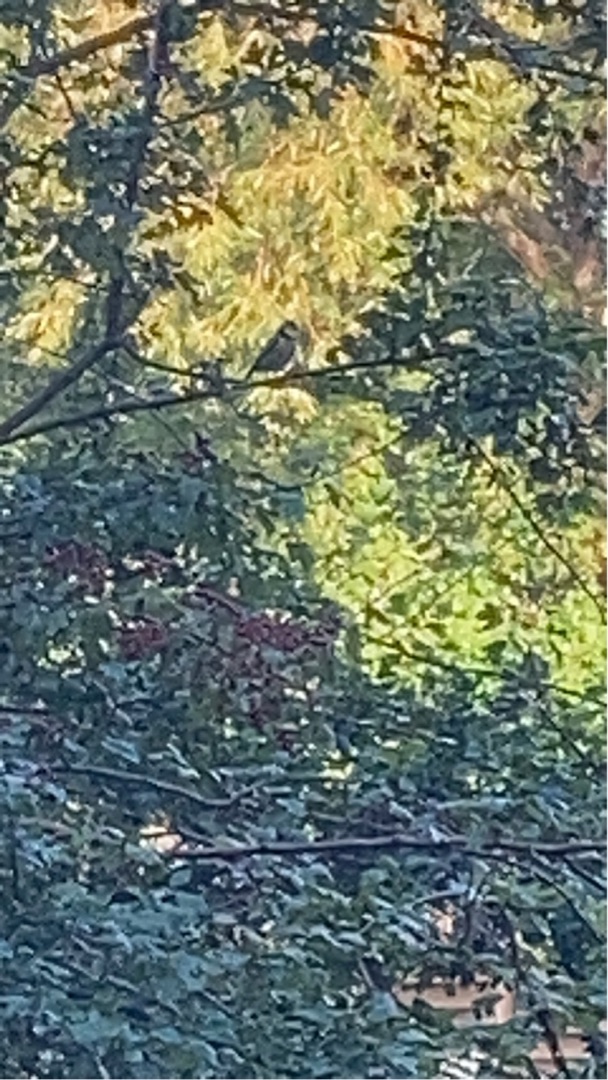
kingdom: Animalia
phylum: Chordata
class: Aves
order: Passeriformes
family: Paridae
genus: Cyanistes
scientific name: Cyanistes caeruleus
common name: Blåmejse
